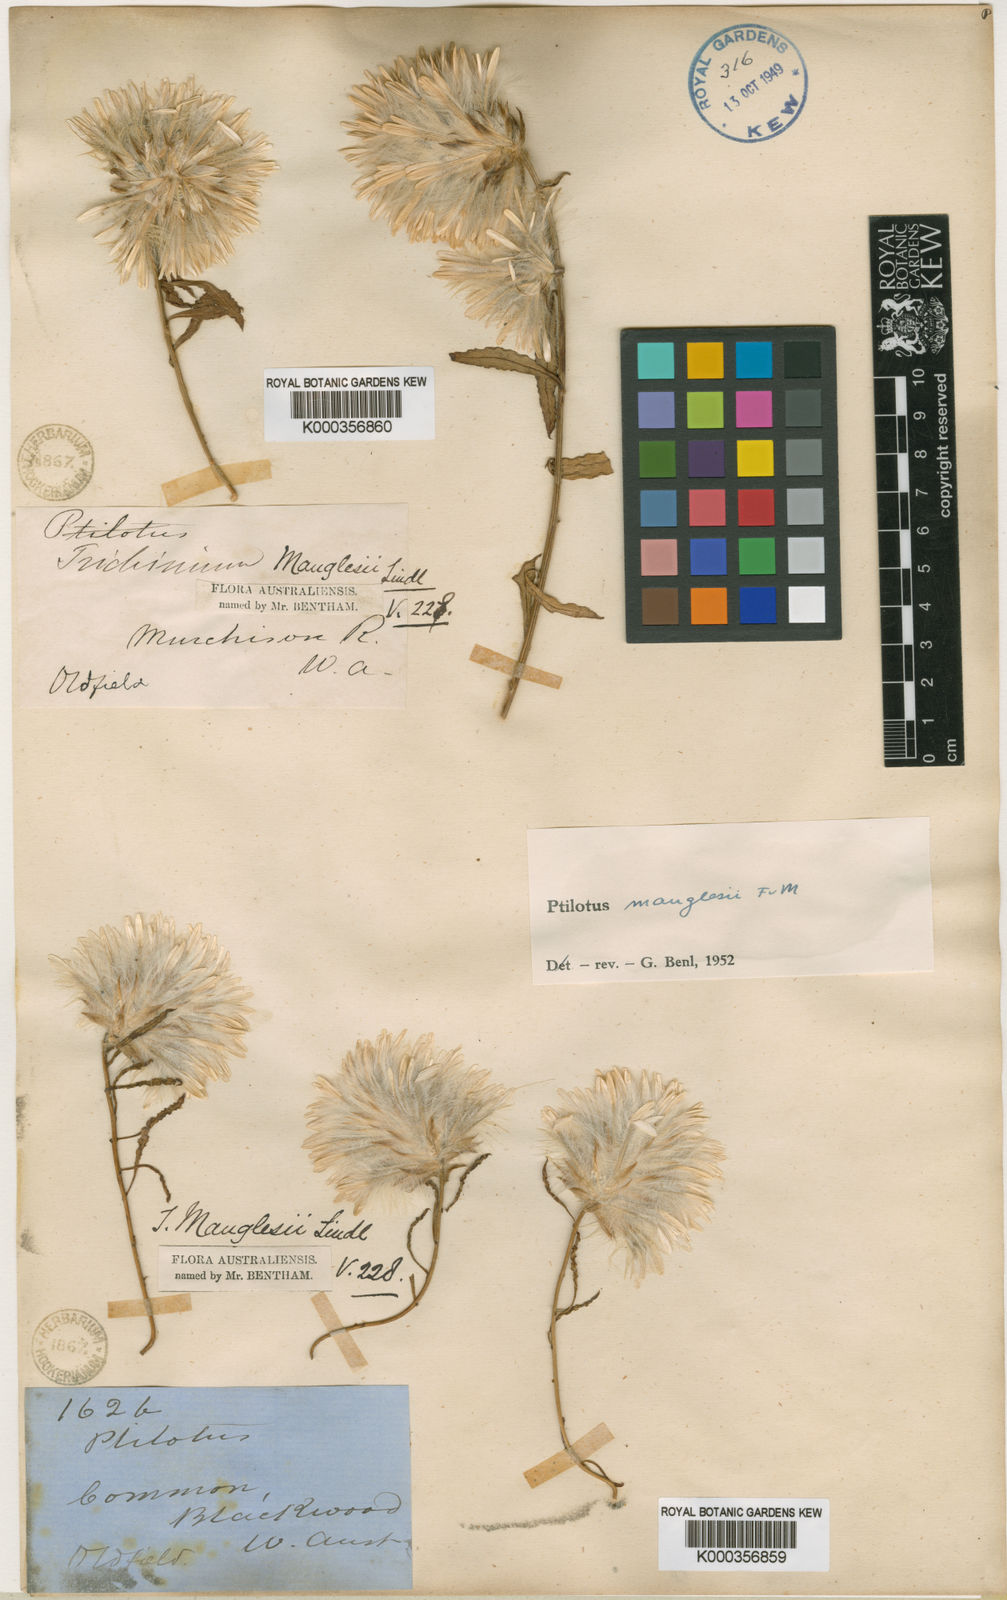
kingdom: Plantae
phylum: Tracheophyta
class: Magnoliopsida
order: Caryophyllales
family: Amaranthaceae
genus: Ptilotus
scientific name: Ptilotus manglesii
